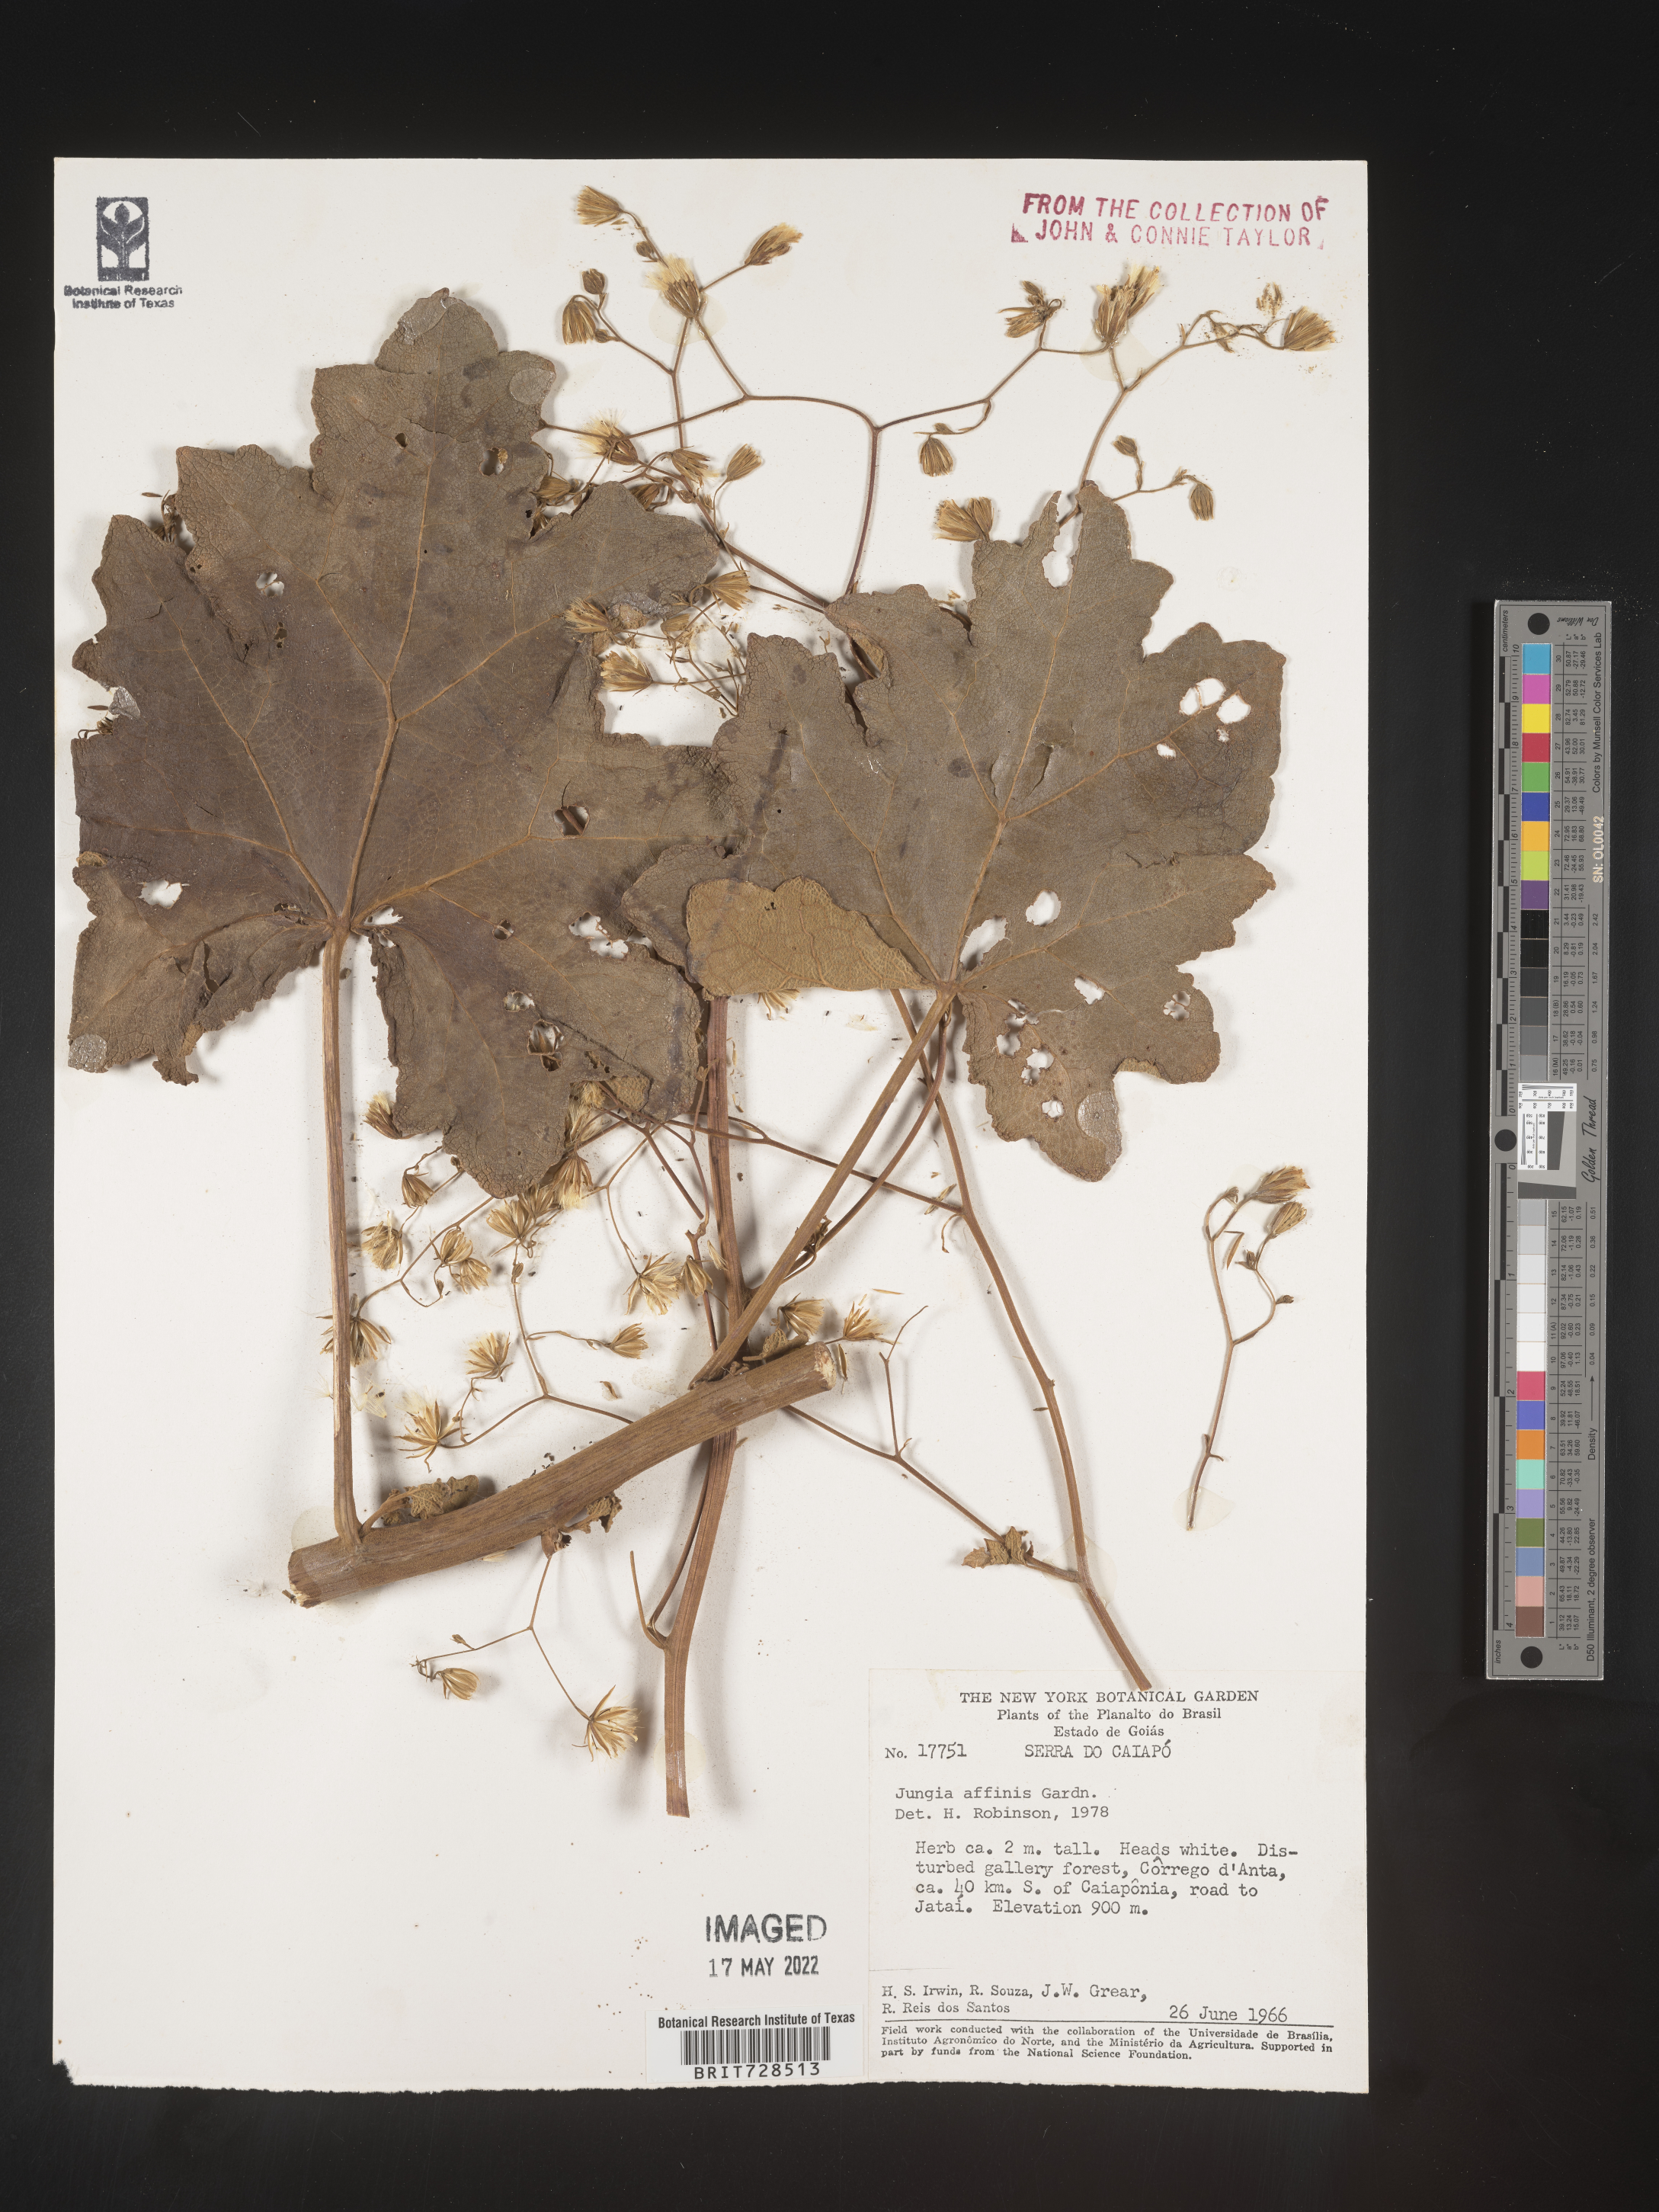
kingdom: Plantae
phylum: Tracheophyta
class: Magnoliopsida
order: Asterales
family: Asteraceae
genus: Jungia
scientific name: Jungia
